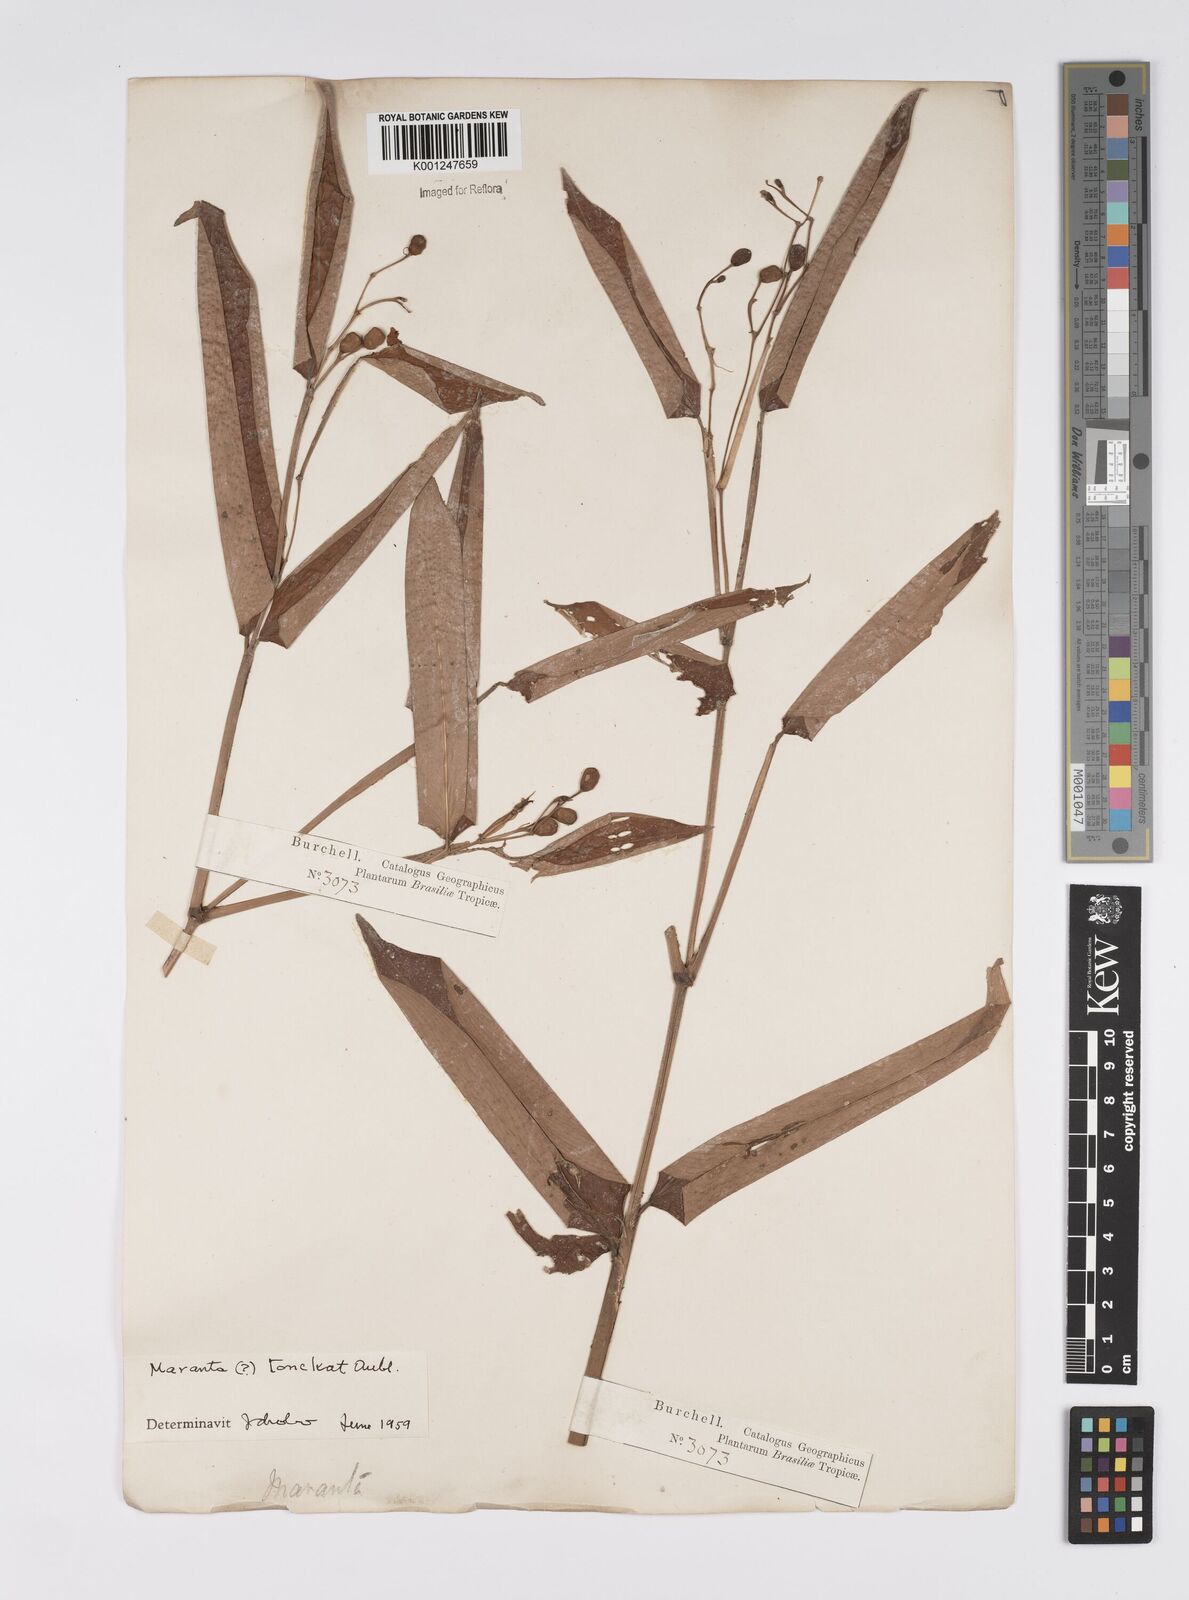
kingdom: Plantae
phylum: Tracheophyta
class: Liliopsida
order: Zingiberales
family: Marantaceae
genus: Stromanthe
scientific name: Stromanthe tonckat
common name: Stromanthe
